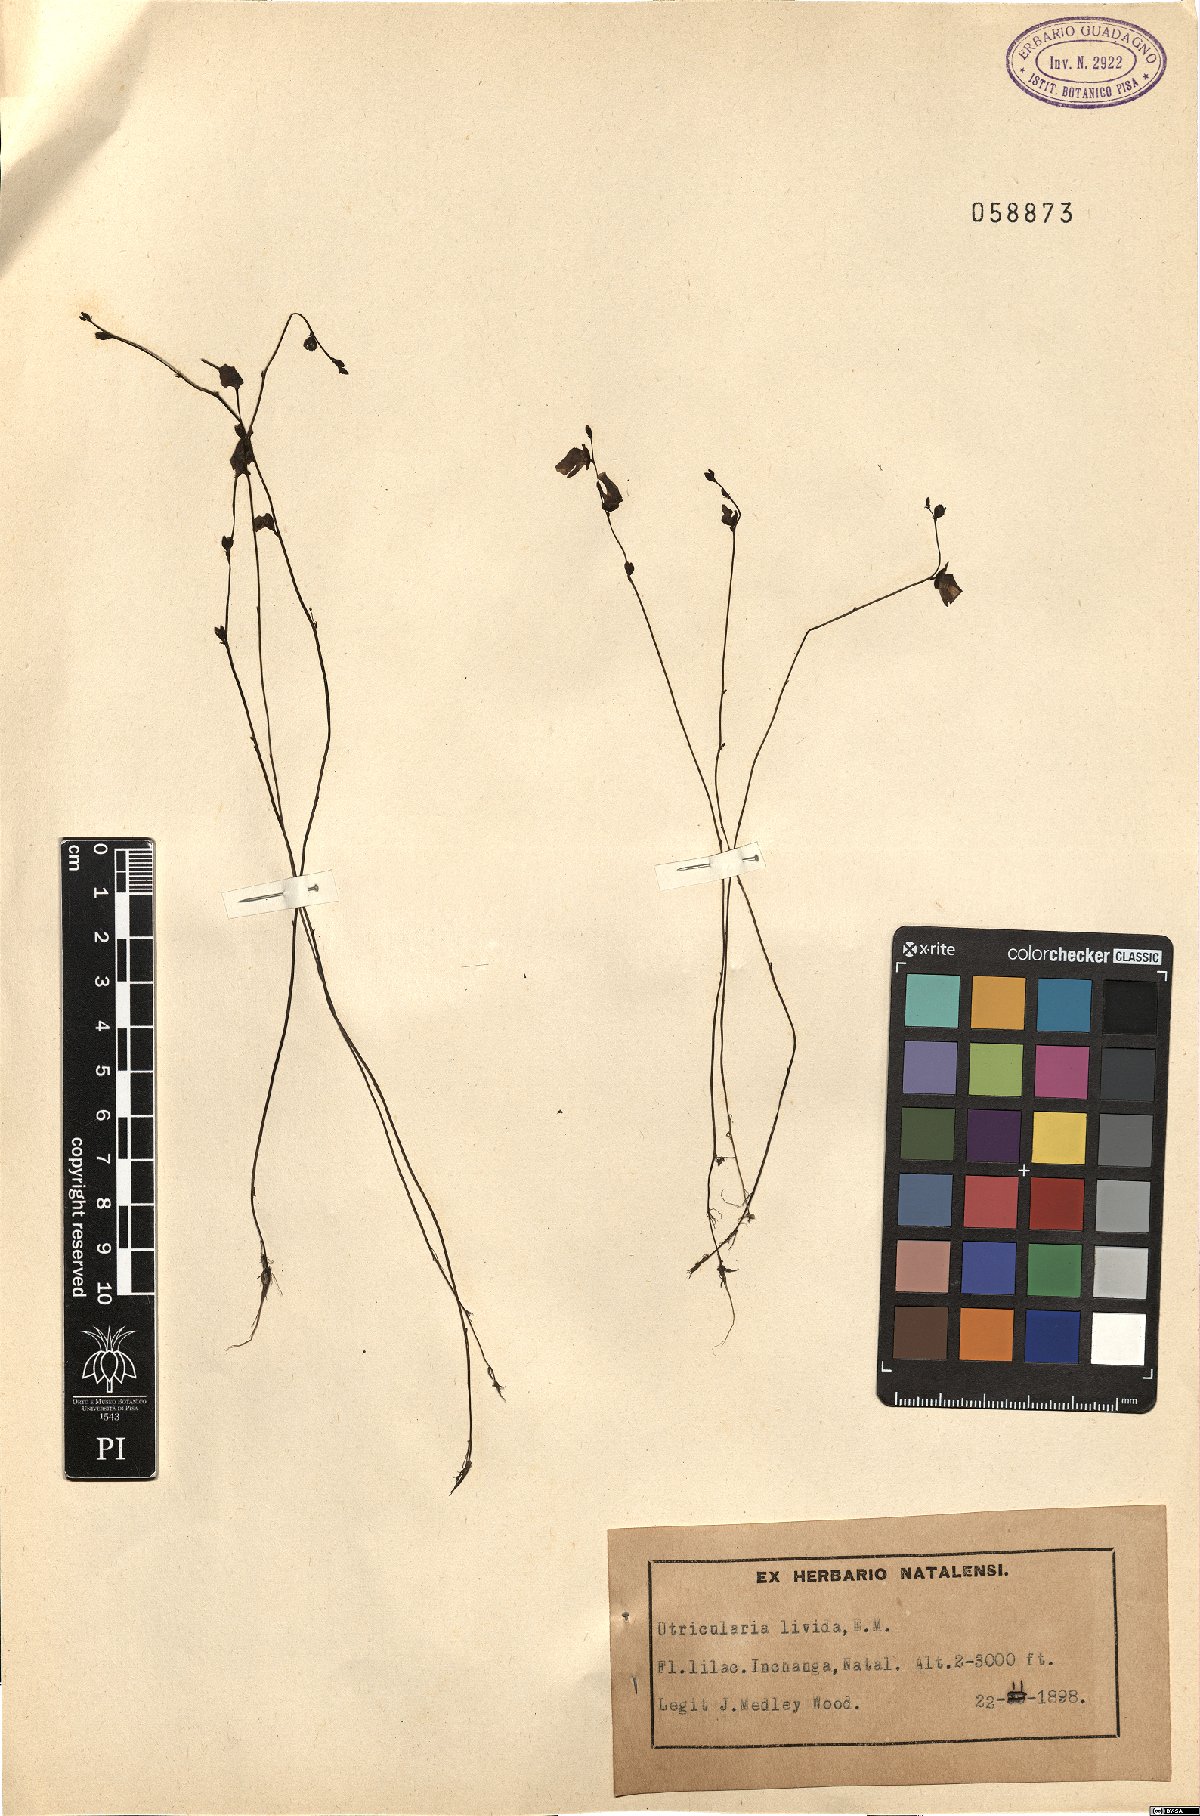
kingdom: Plantae
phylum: Tracheophyta
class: Magnoliopsida
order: Lamiales
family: Lentibulariaceae
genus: Utricularia
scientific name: Utricularia livida
